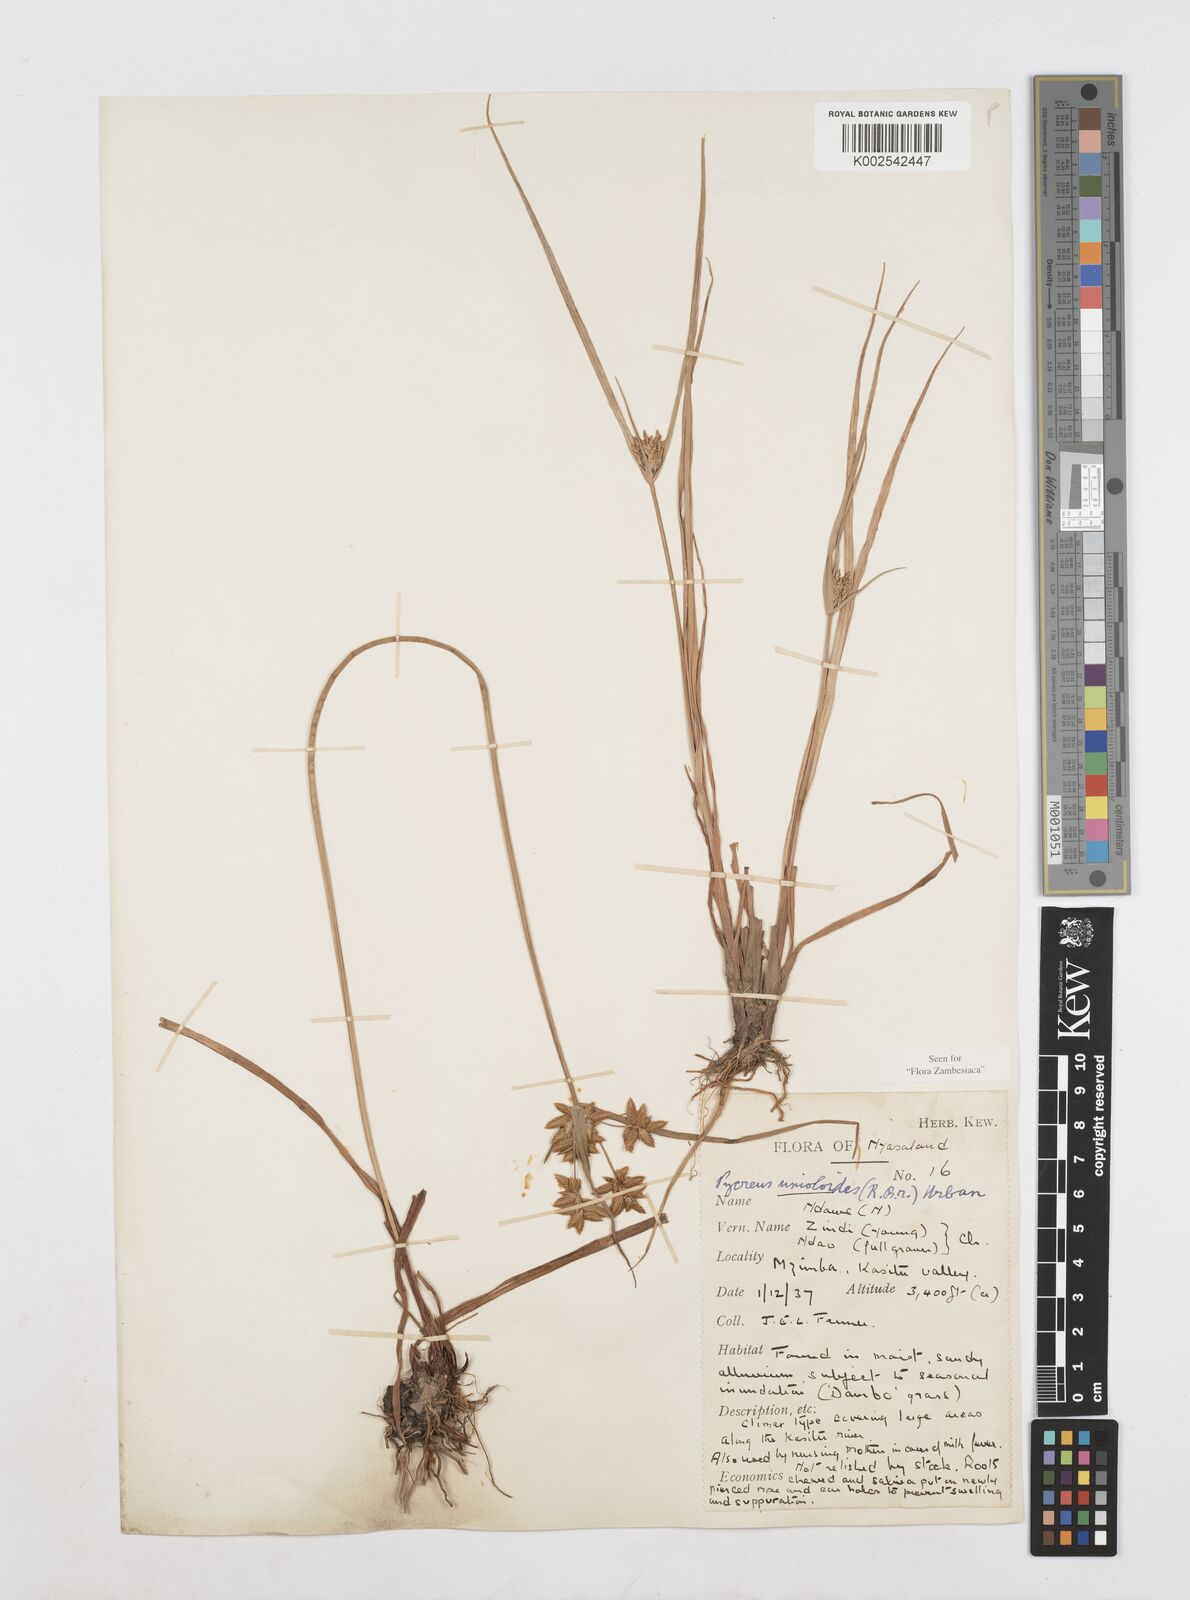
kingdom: Plantae
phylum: Tracheophyta
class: Liliopsida
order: Poales
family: Cyperaceae
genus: Cyperus
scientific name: Cyperus unioloides
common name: Uniola flatsedge
